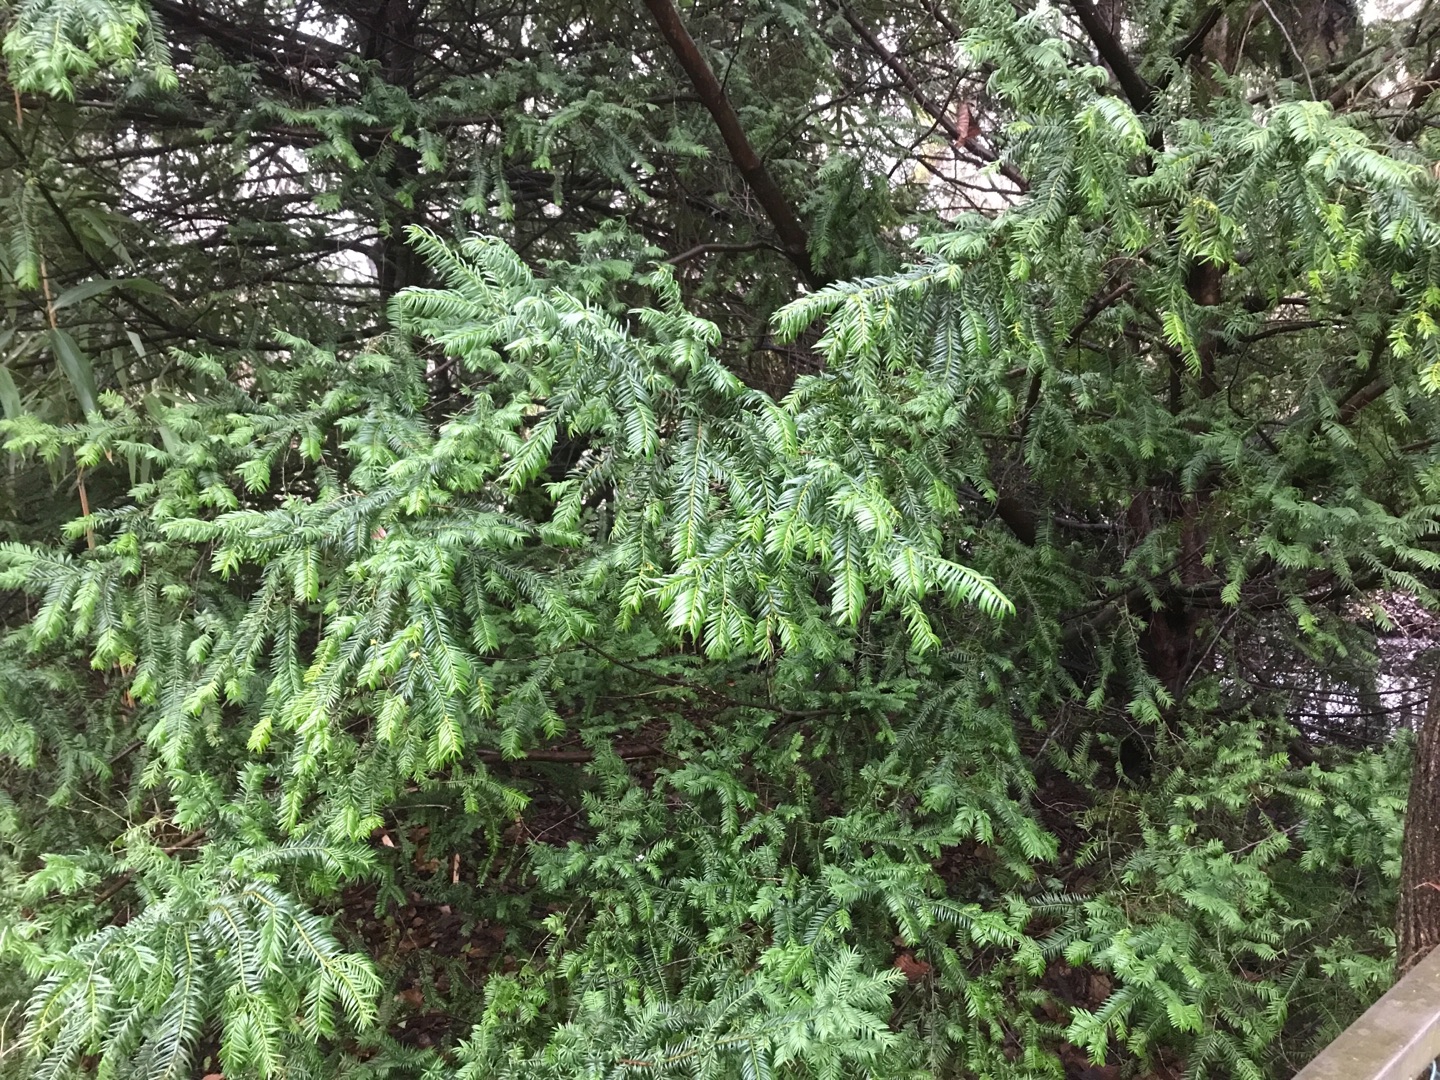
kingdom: Plantae
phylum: Tracheophyta
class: Pinopsida
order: Pinales
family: Taxaceae
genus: Taxus
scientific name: Taxus baccata
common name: Almindelig taks
